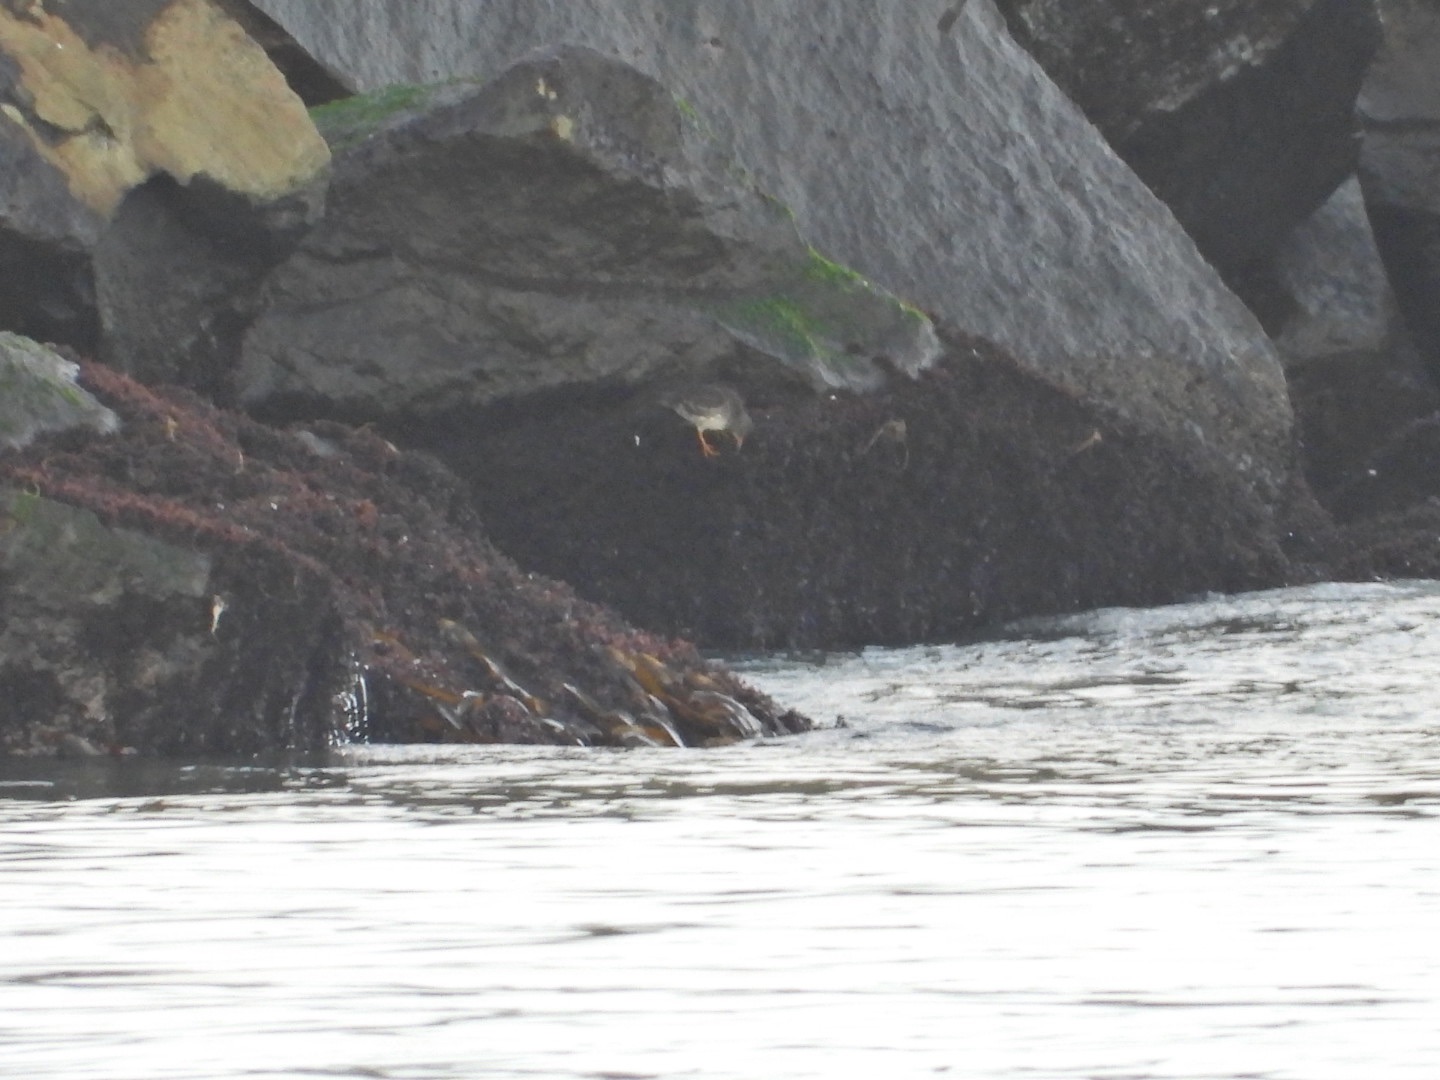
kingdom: Animalia
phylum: Chordata
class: Aves
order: Charadriiformes
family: Scolopacidae
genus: Calidris
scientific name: Calidris maritima
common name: Sortgrå ryle
